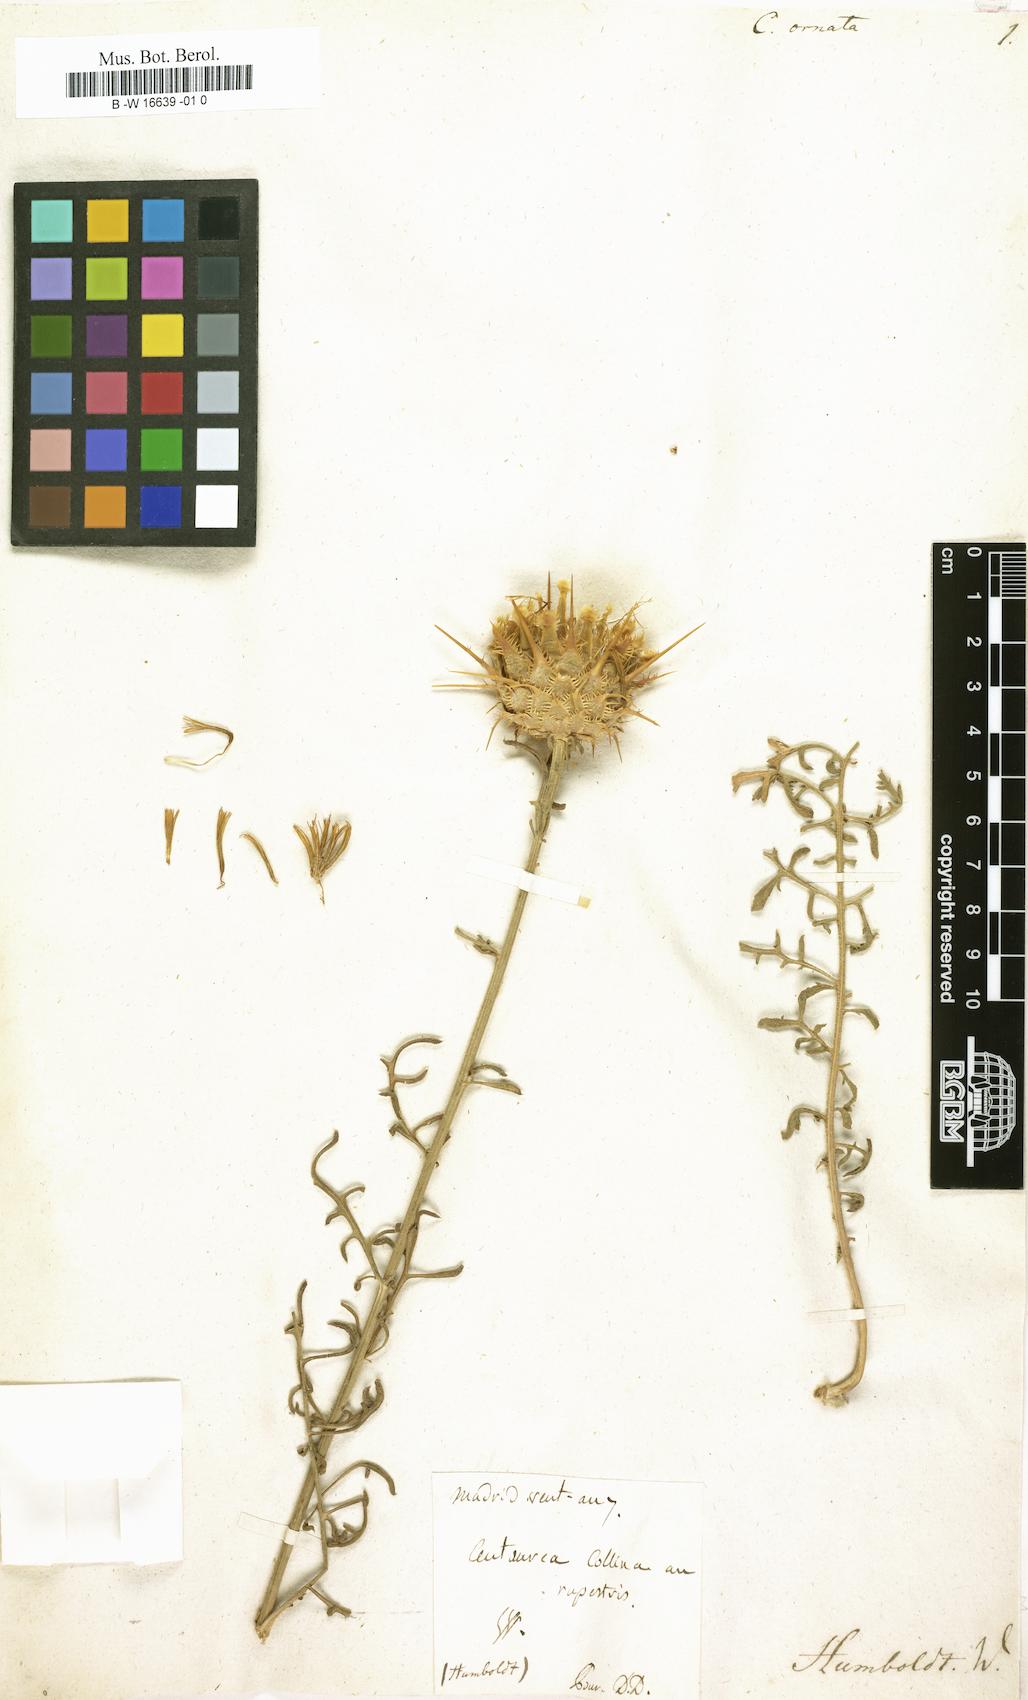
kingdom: Plantae
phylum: Tracheophyta
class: Magnoliopsida
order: Asterales
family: Asteraceae
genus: Centaurea
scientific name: Centaurea ornata
